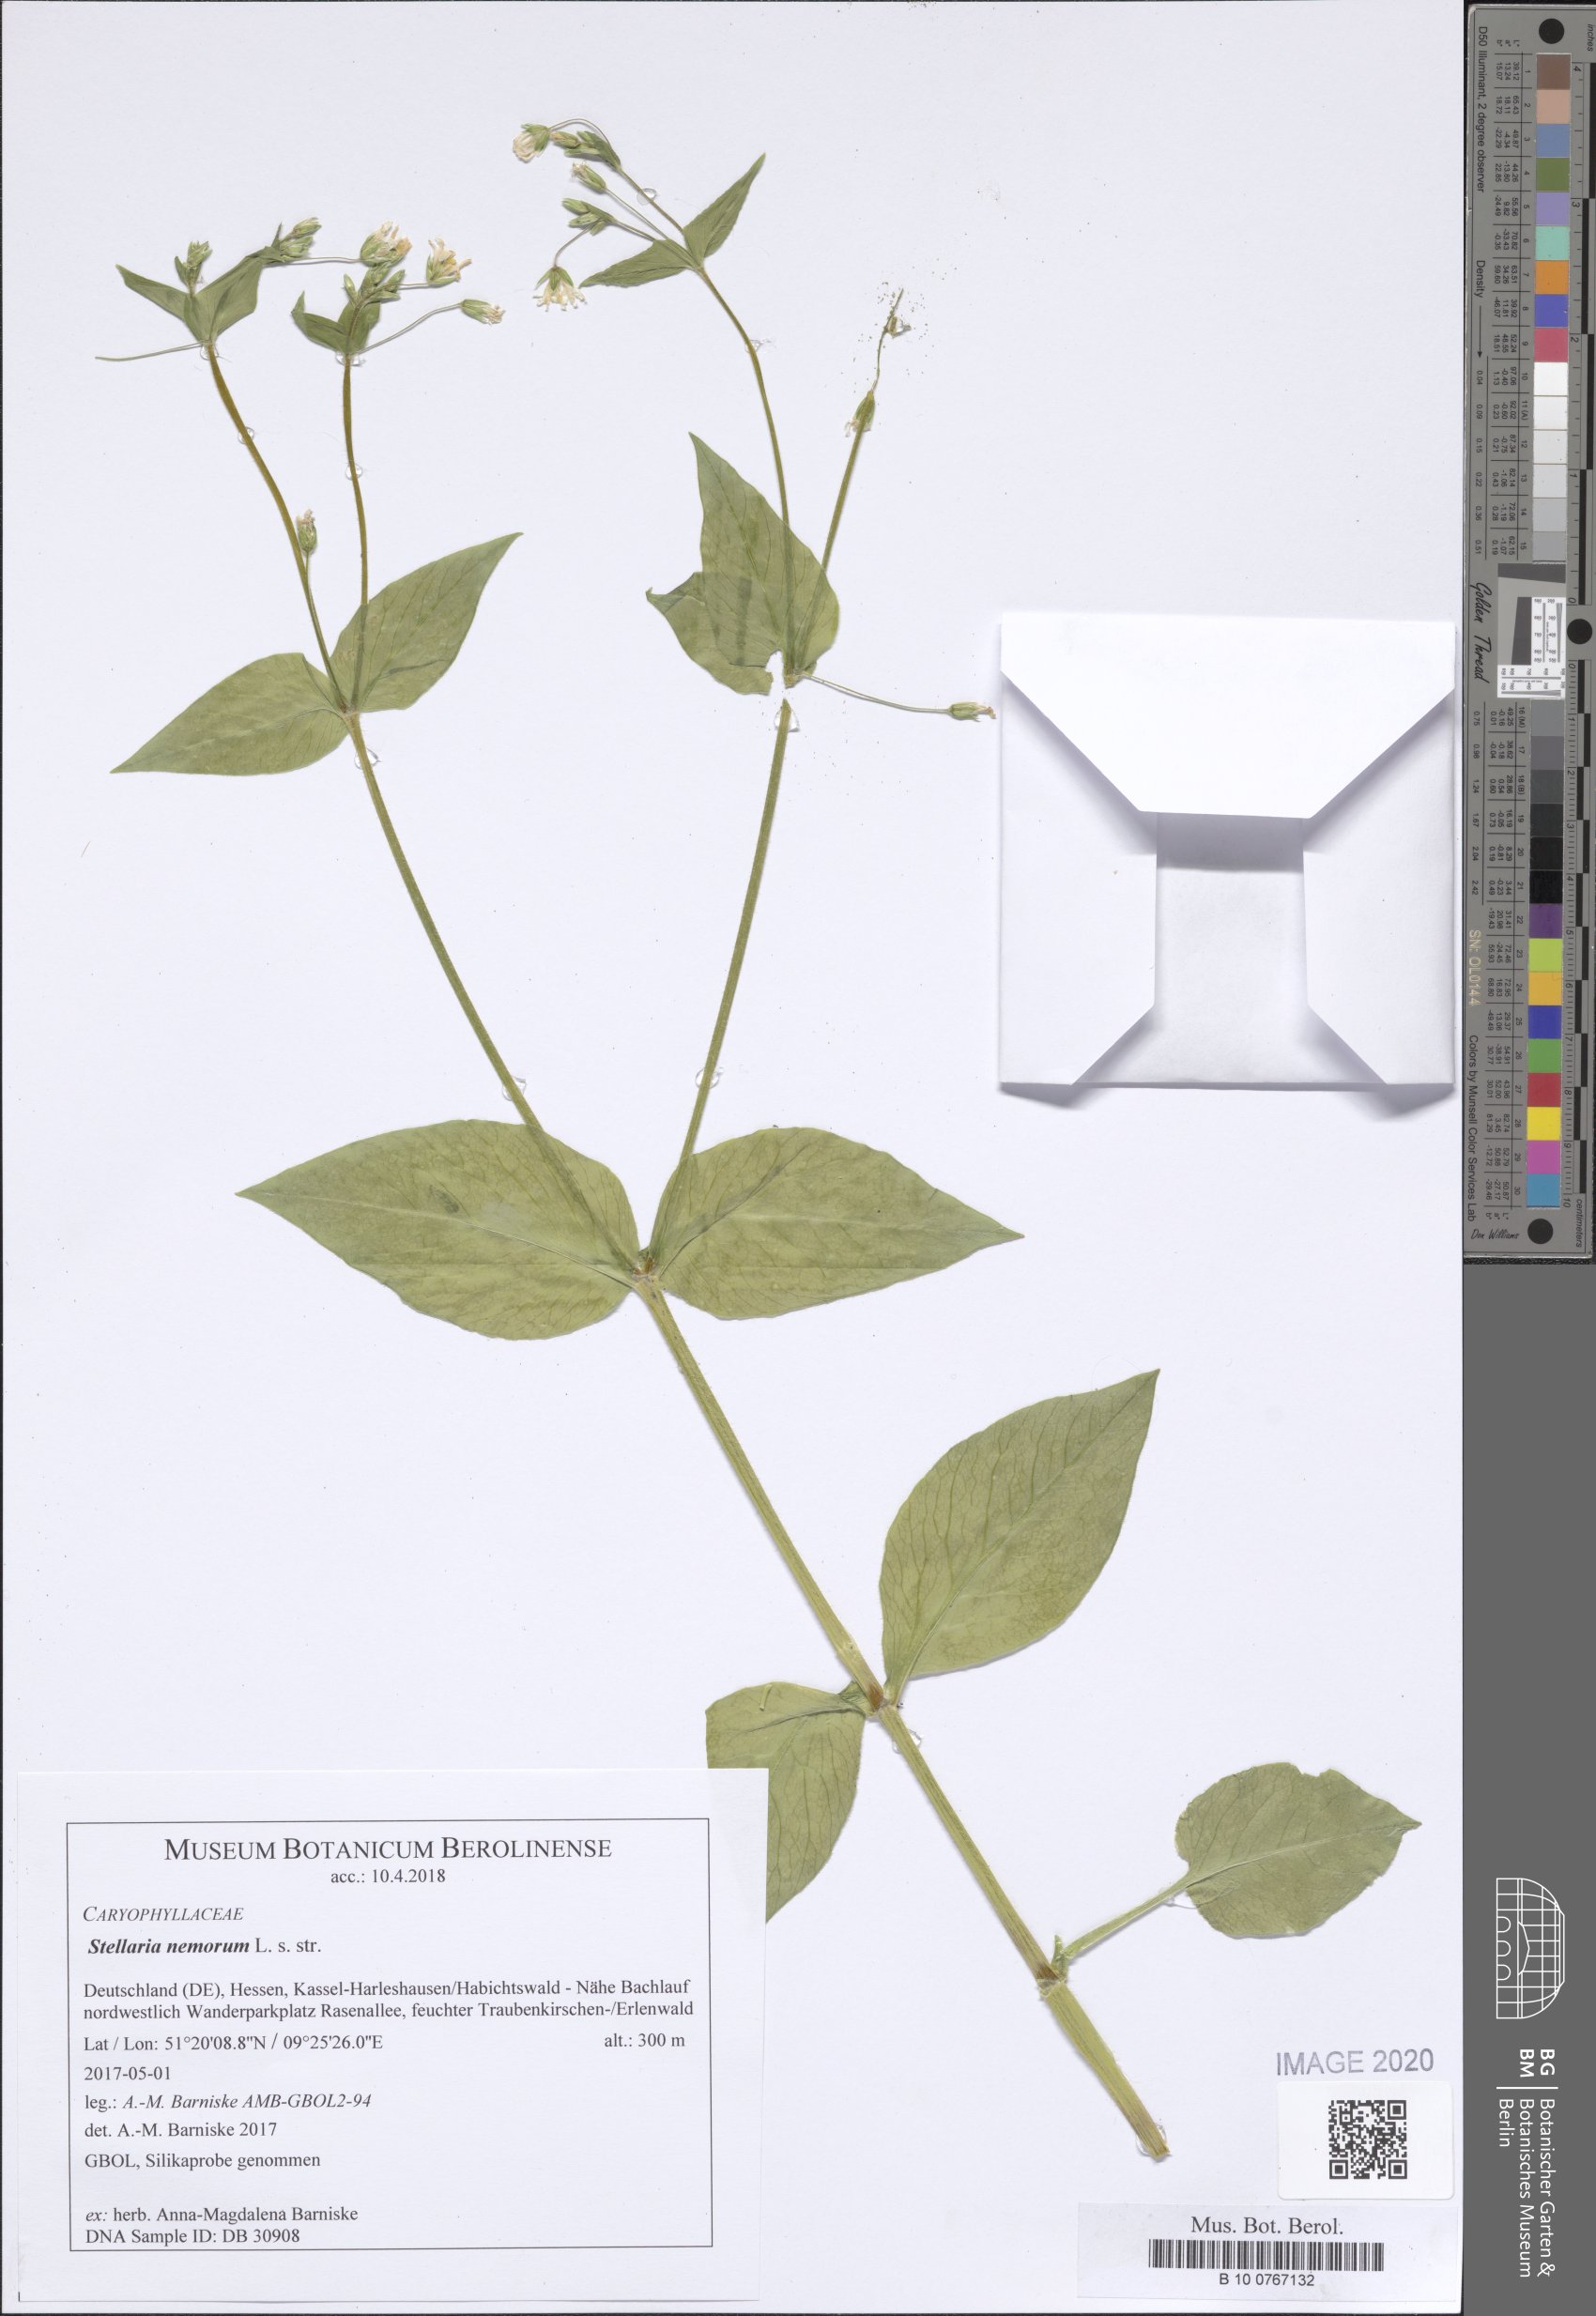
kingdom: Plantae
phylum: Tracheophyta
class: Magnoliopsida
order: Caryophyllales
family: Caryophyllaceae
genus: Stellaria
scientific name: Stellaria nemorum
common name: Wood stitchwort
